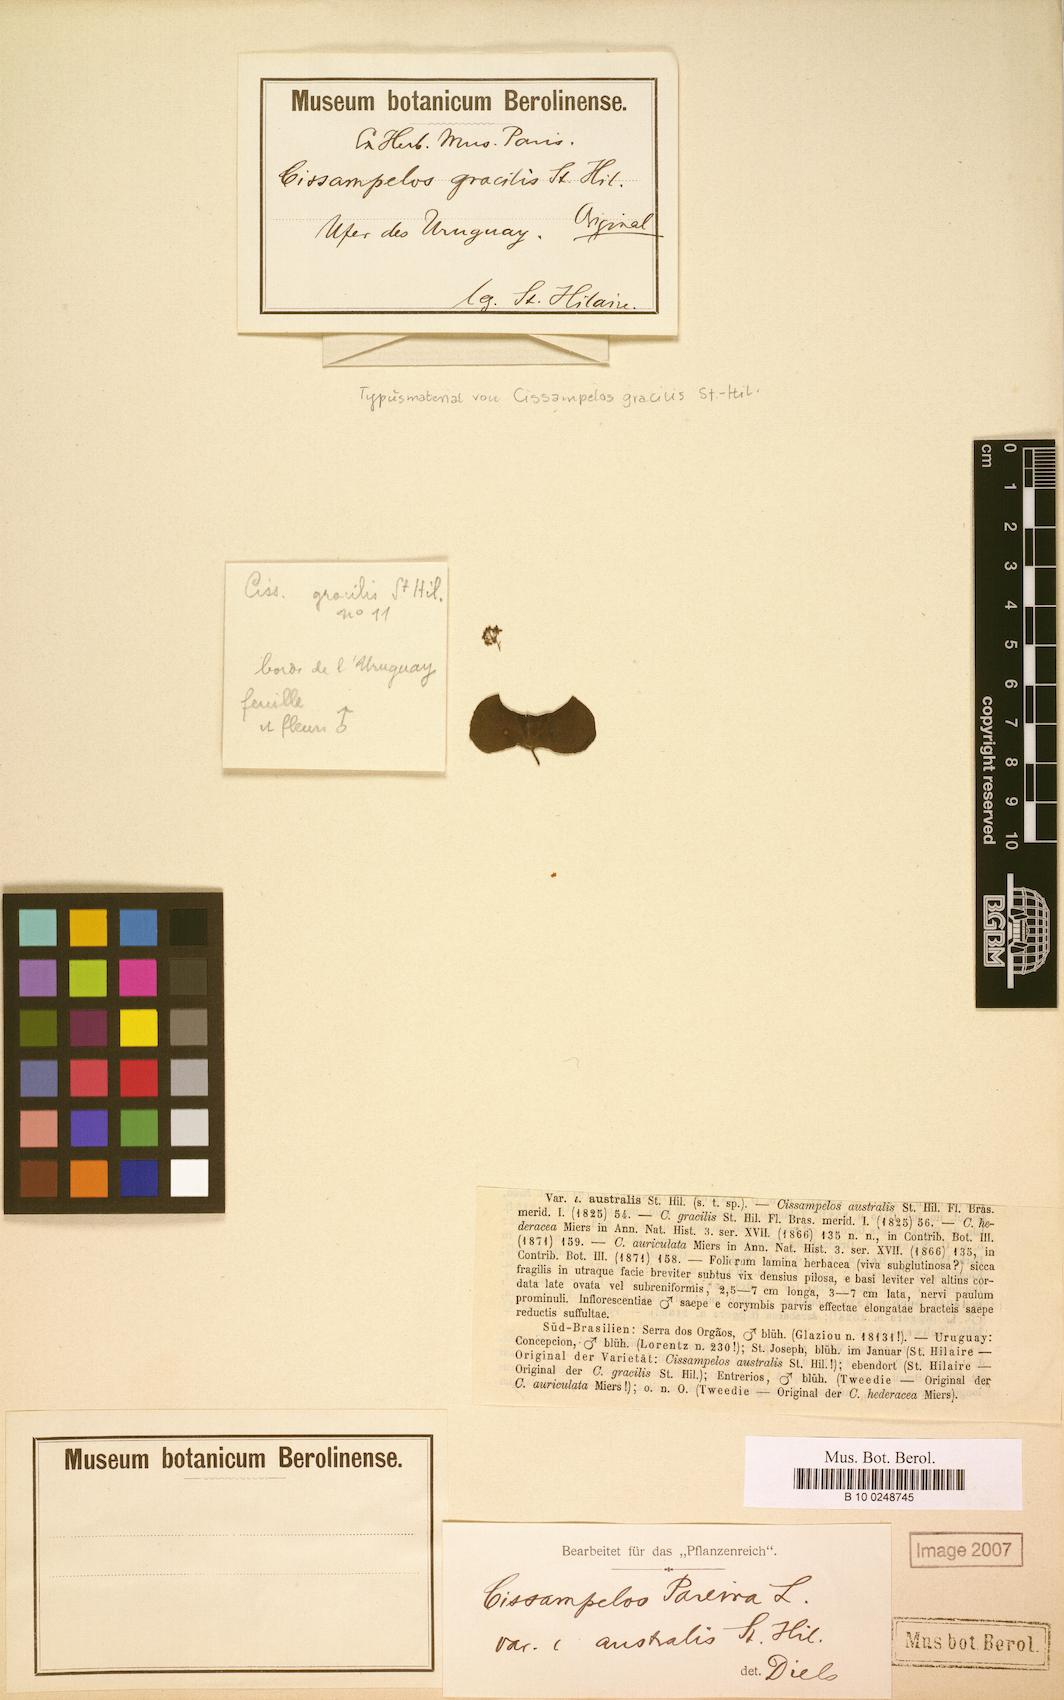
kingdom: Plantae
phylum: Tracheophyta
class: Magnoliopsida
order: Ranunculales
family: Menispermaceae
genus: Cissampelos
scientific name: Cissampelos pareira
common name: Velvetleaf
